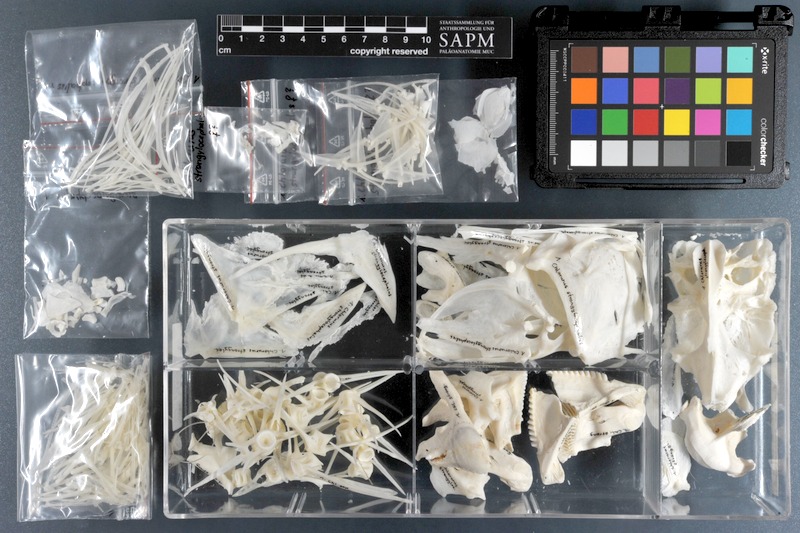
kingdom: Animalia
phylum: Chordata
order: Perciformes
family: Scaridae
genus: Chlorurus
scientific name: Chlorurus strongylocephalus
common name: Steephead parrotfish
